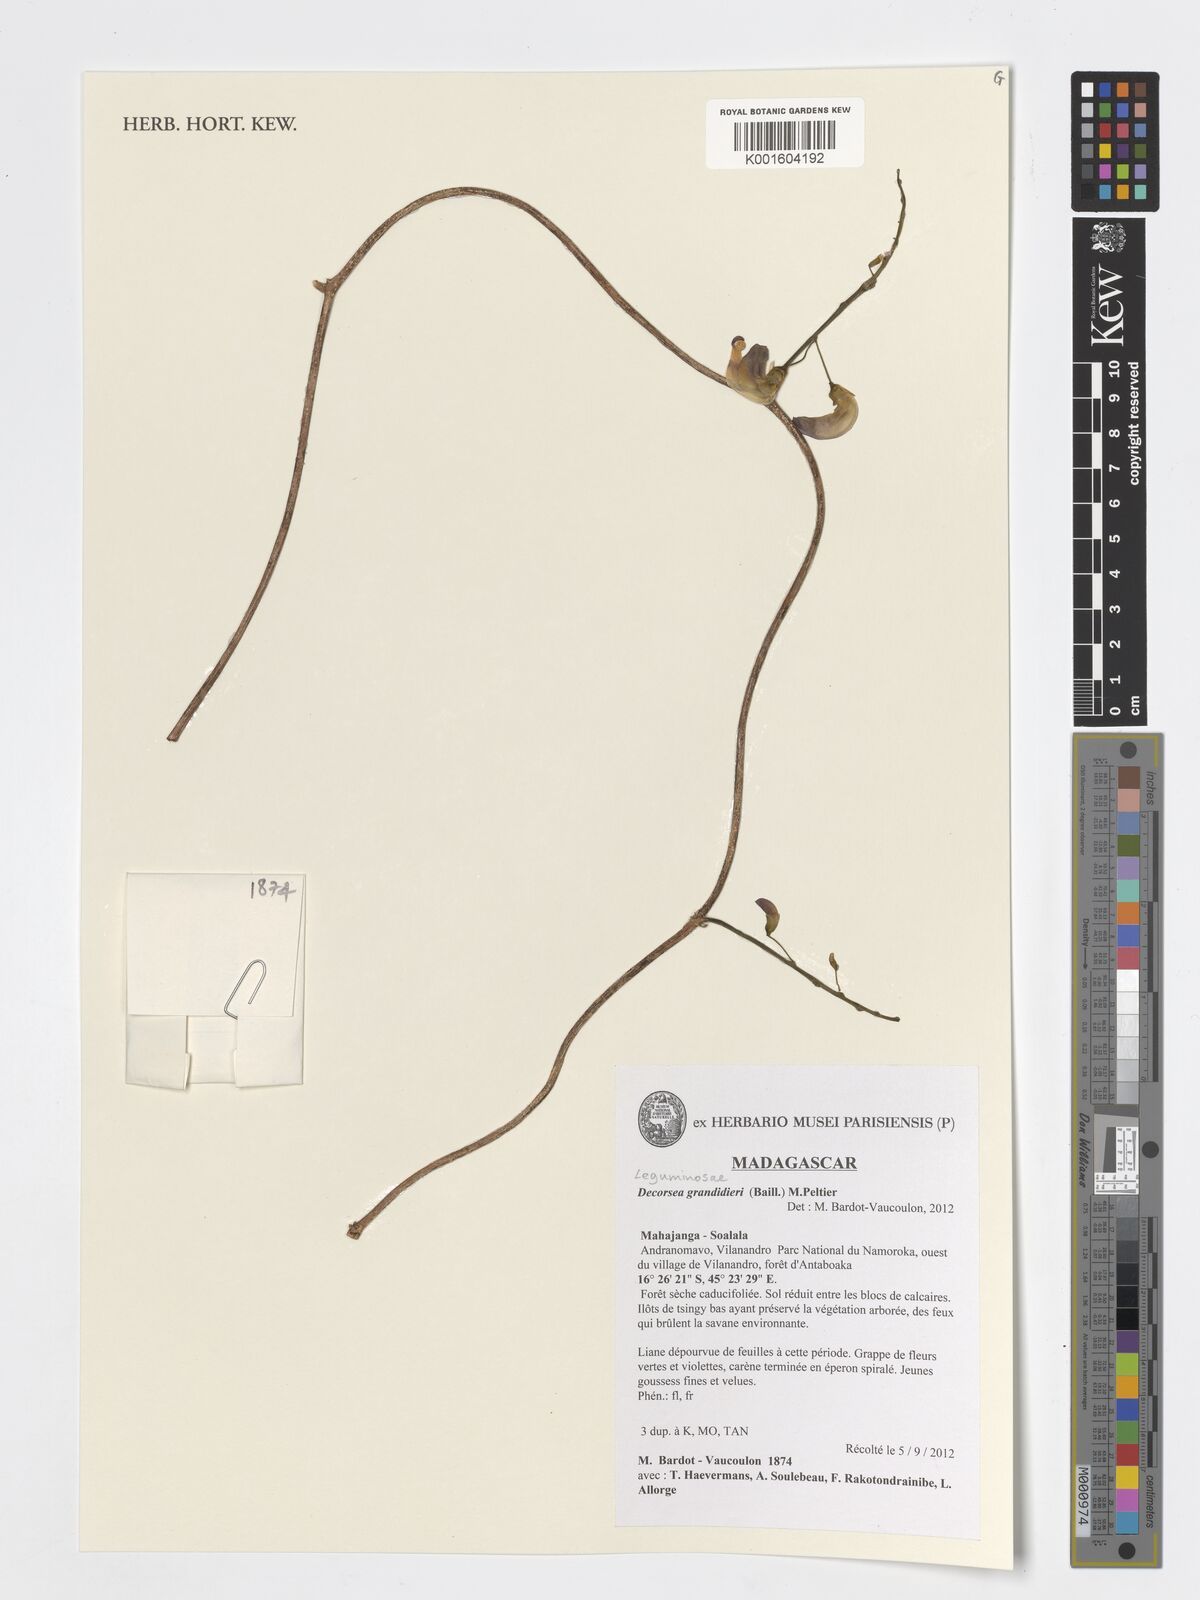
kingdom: Plantae
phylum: Tracheophyta
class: Magnoliopsida
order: Fabales
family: Fabaceae
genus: Decorsea
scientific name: Decorsea grandidieri
